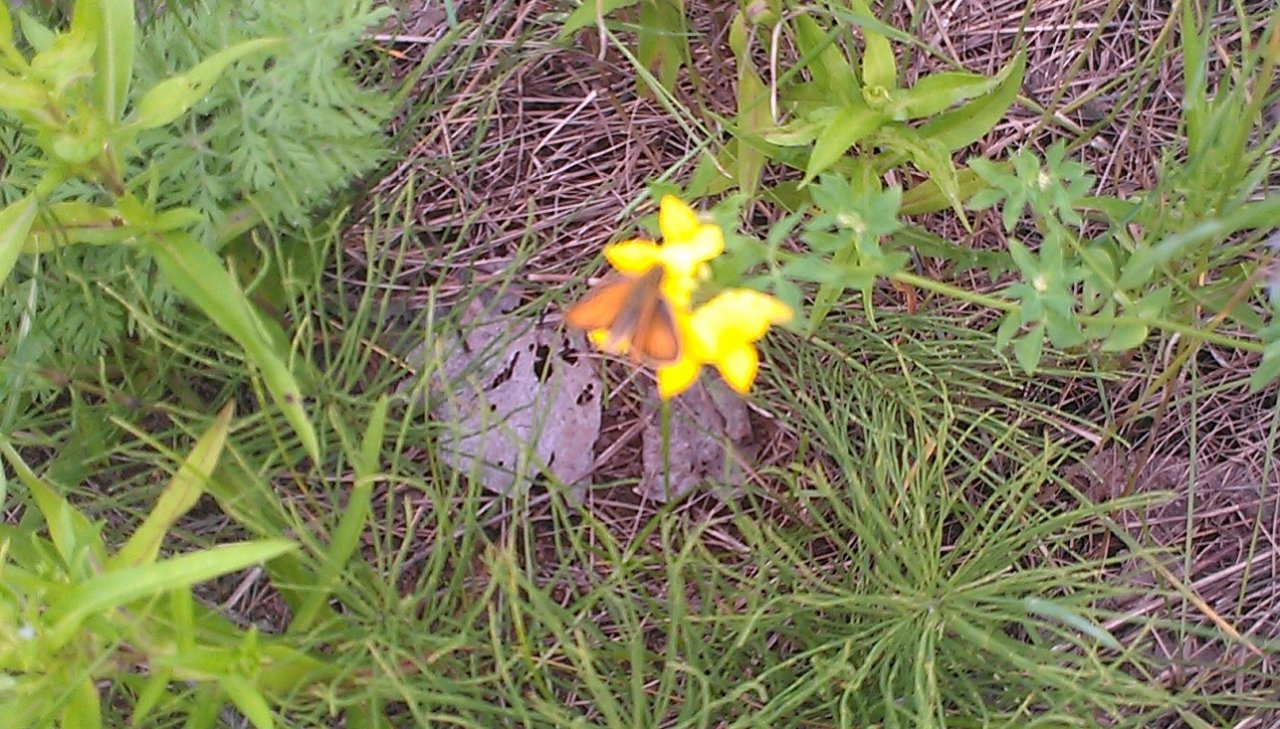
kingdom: Animalia
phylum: Arthropoda
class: Insecta
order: Lepidoptera
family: Hesperiidae
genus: Thymelicus
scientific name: Thymelicus lineola
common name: European Skipper
